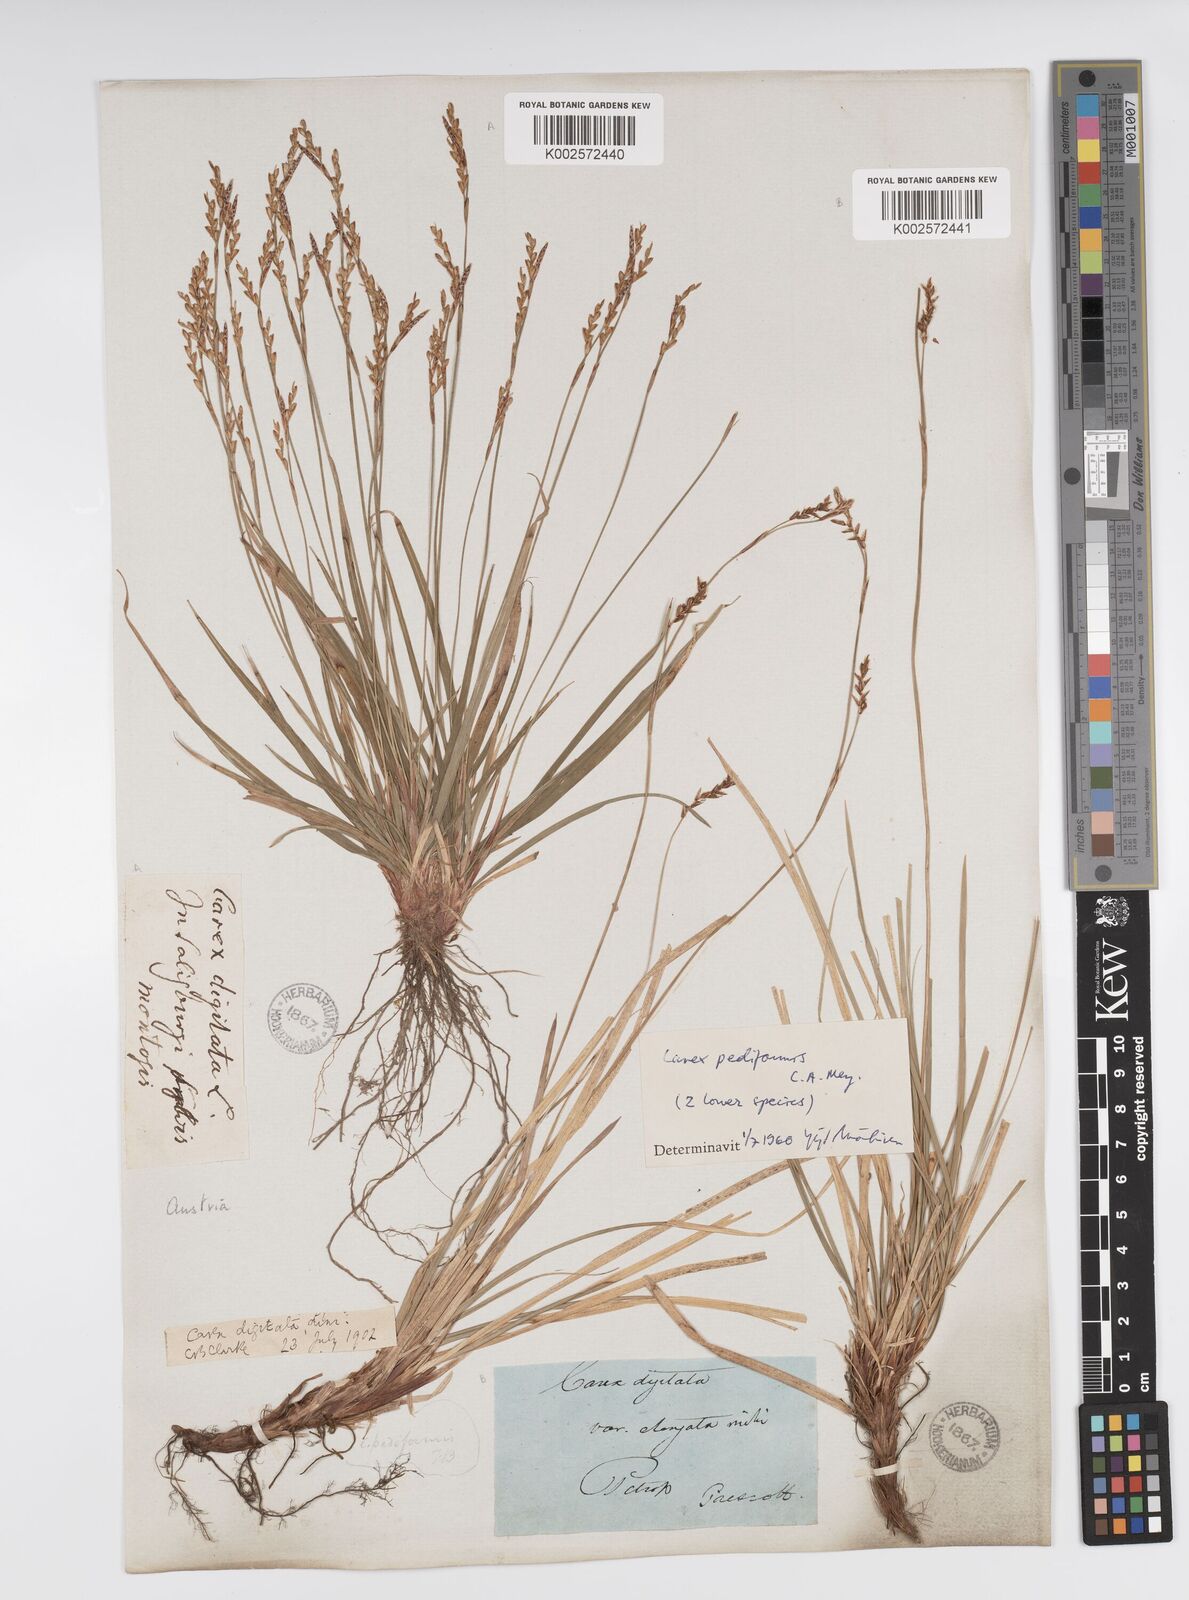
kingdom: Plantae
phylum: Tracheophyta
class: Liliopsida
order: Poales
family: Cyperaceae
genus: Carex
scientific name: Carex digitata
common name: Fingered sedge
